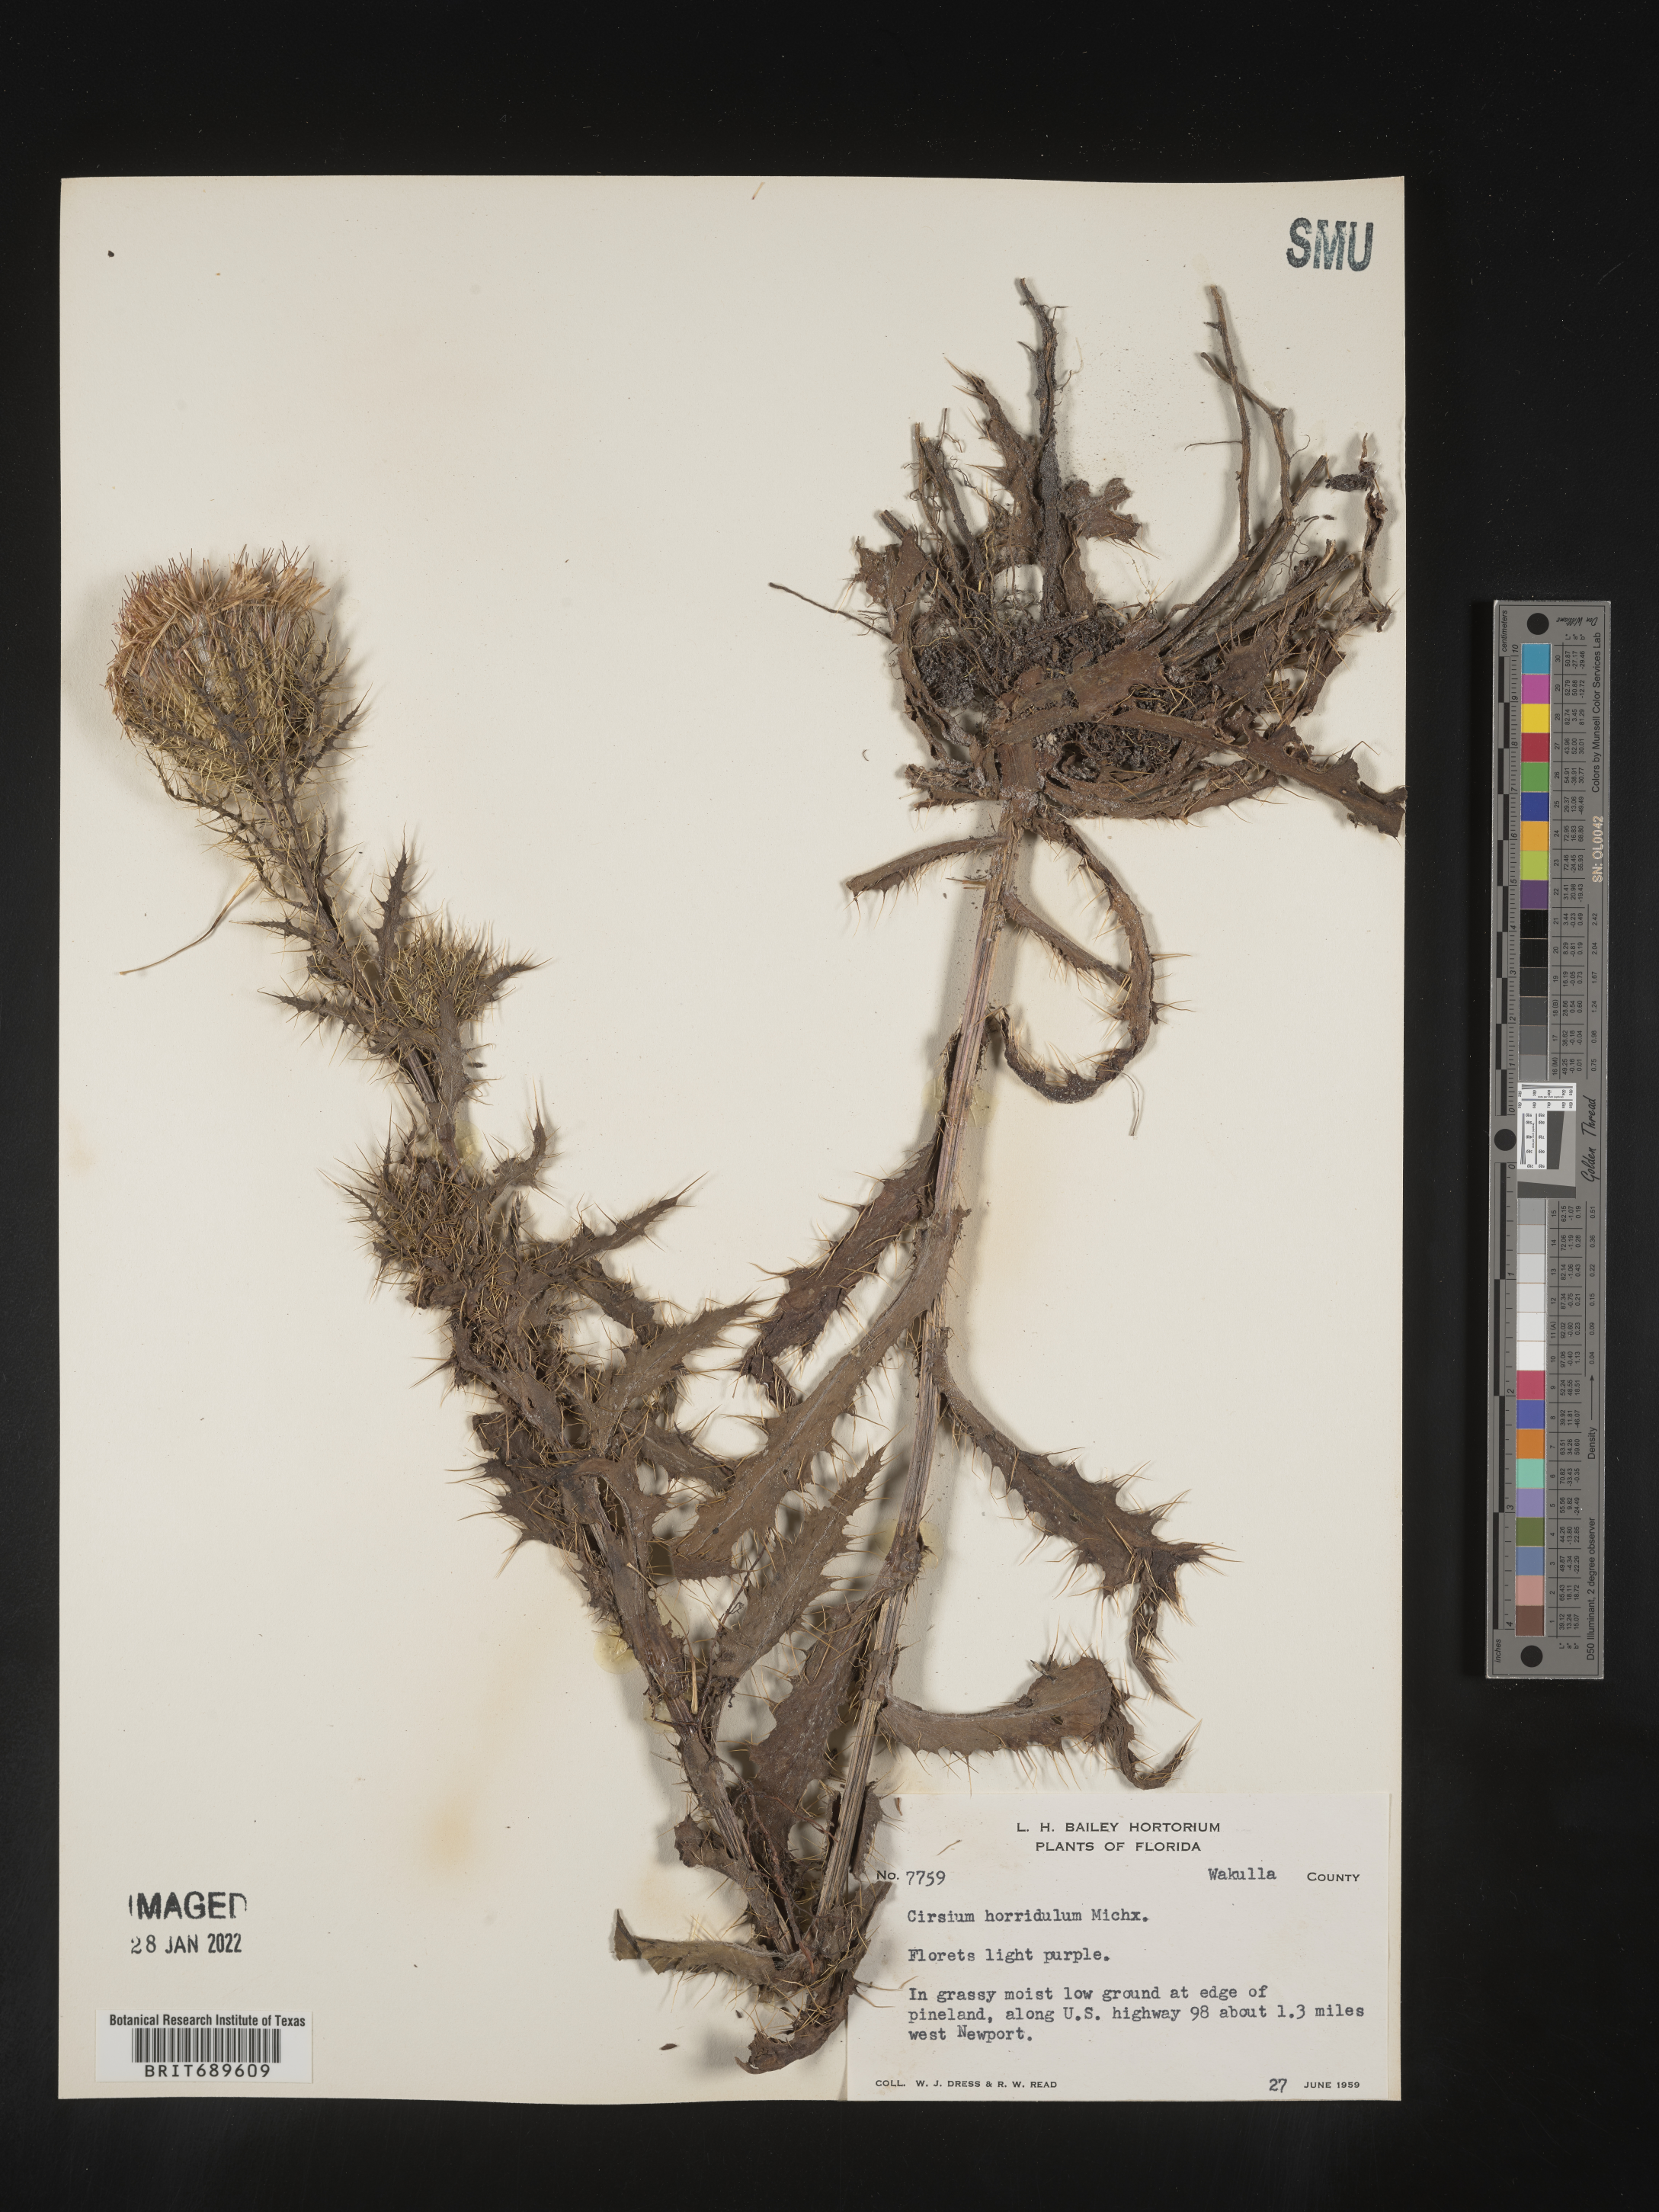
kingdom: Plantae
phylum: Tracheophyta
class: Magnoliopsida
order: Asterales
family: Asteraceae
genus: Cirsium
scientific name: Cirsium horridulum
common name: Bristly thistle
